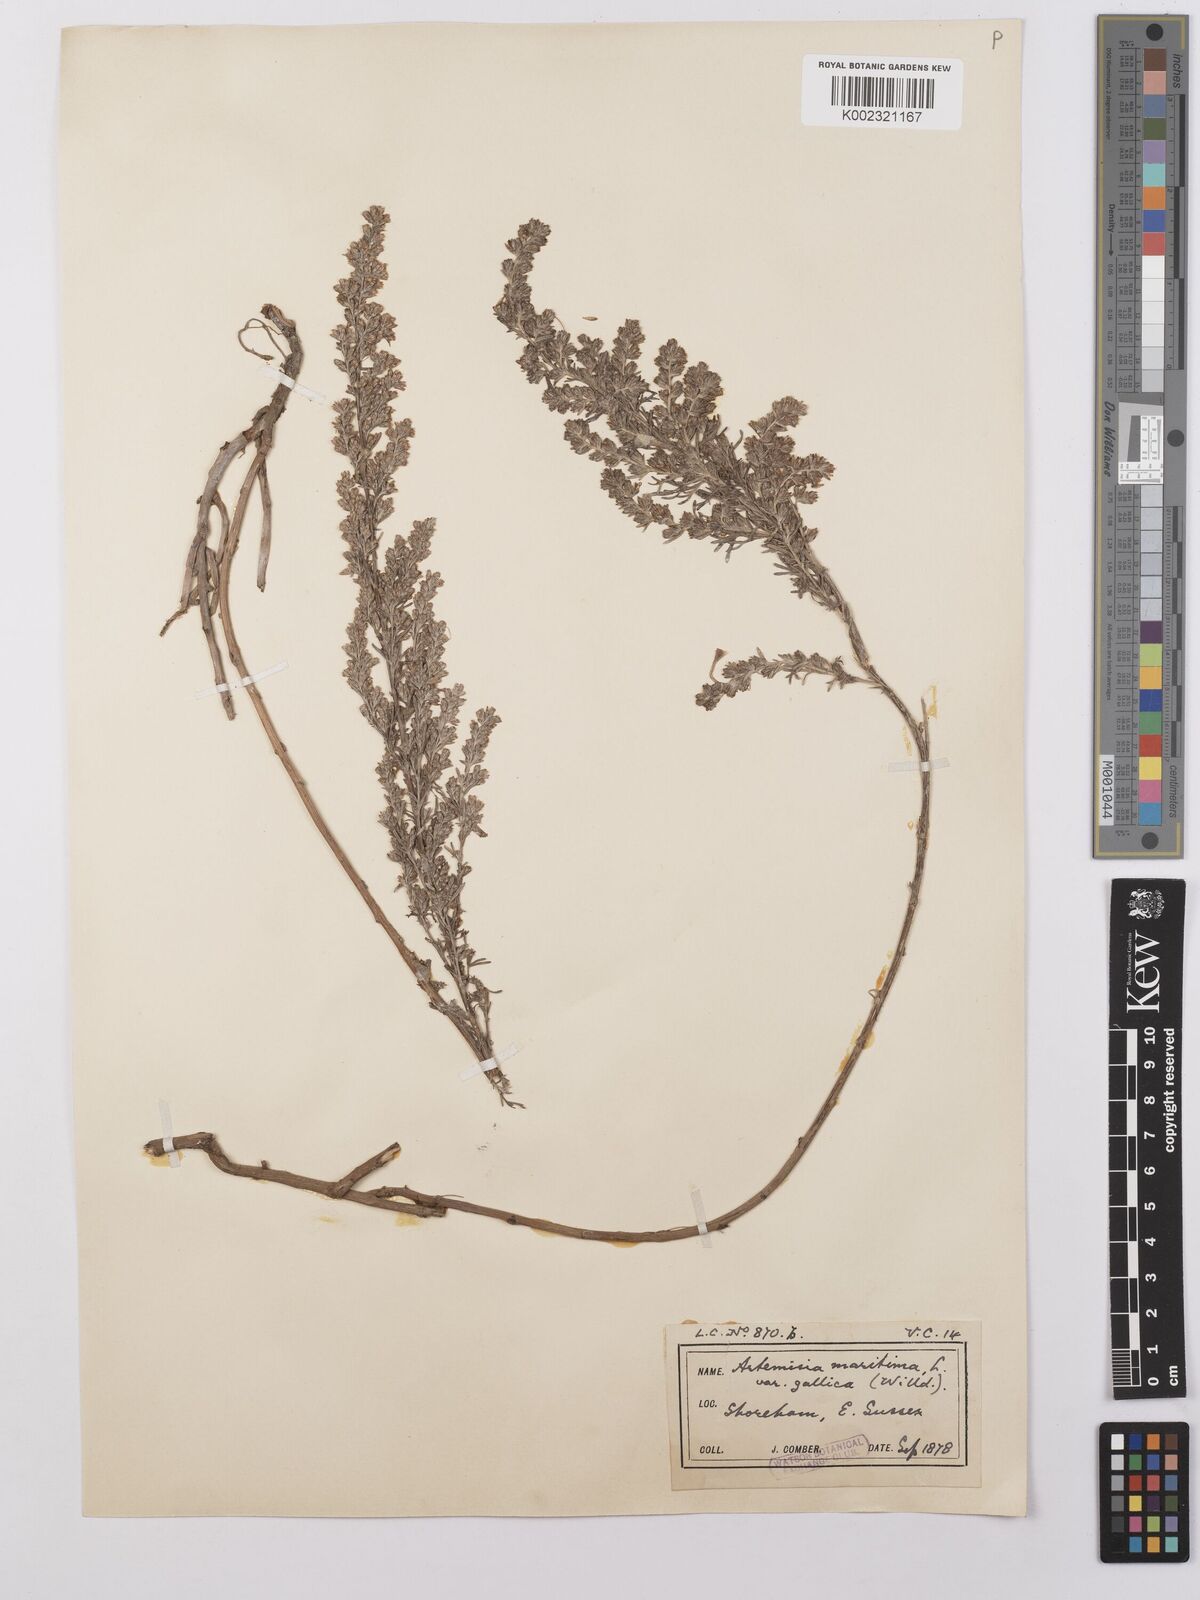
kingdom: Plantae
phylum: Tracheophyta
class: Magnoliopsida
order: Asterales
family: Asteraceae
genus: Artemisia
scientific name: Artemisia maritima
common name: Wormseed
